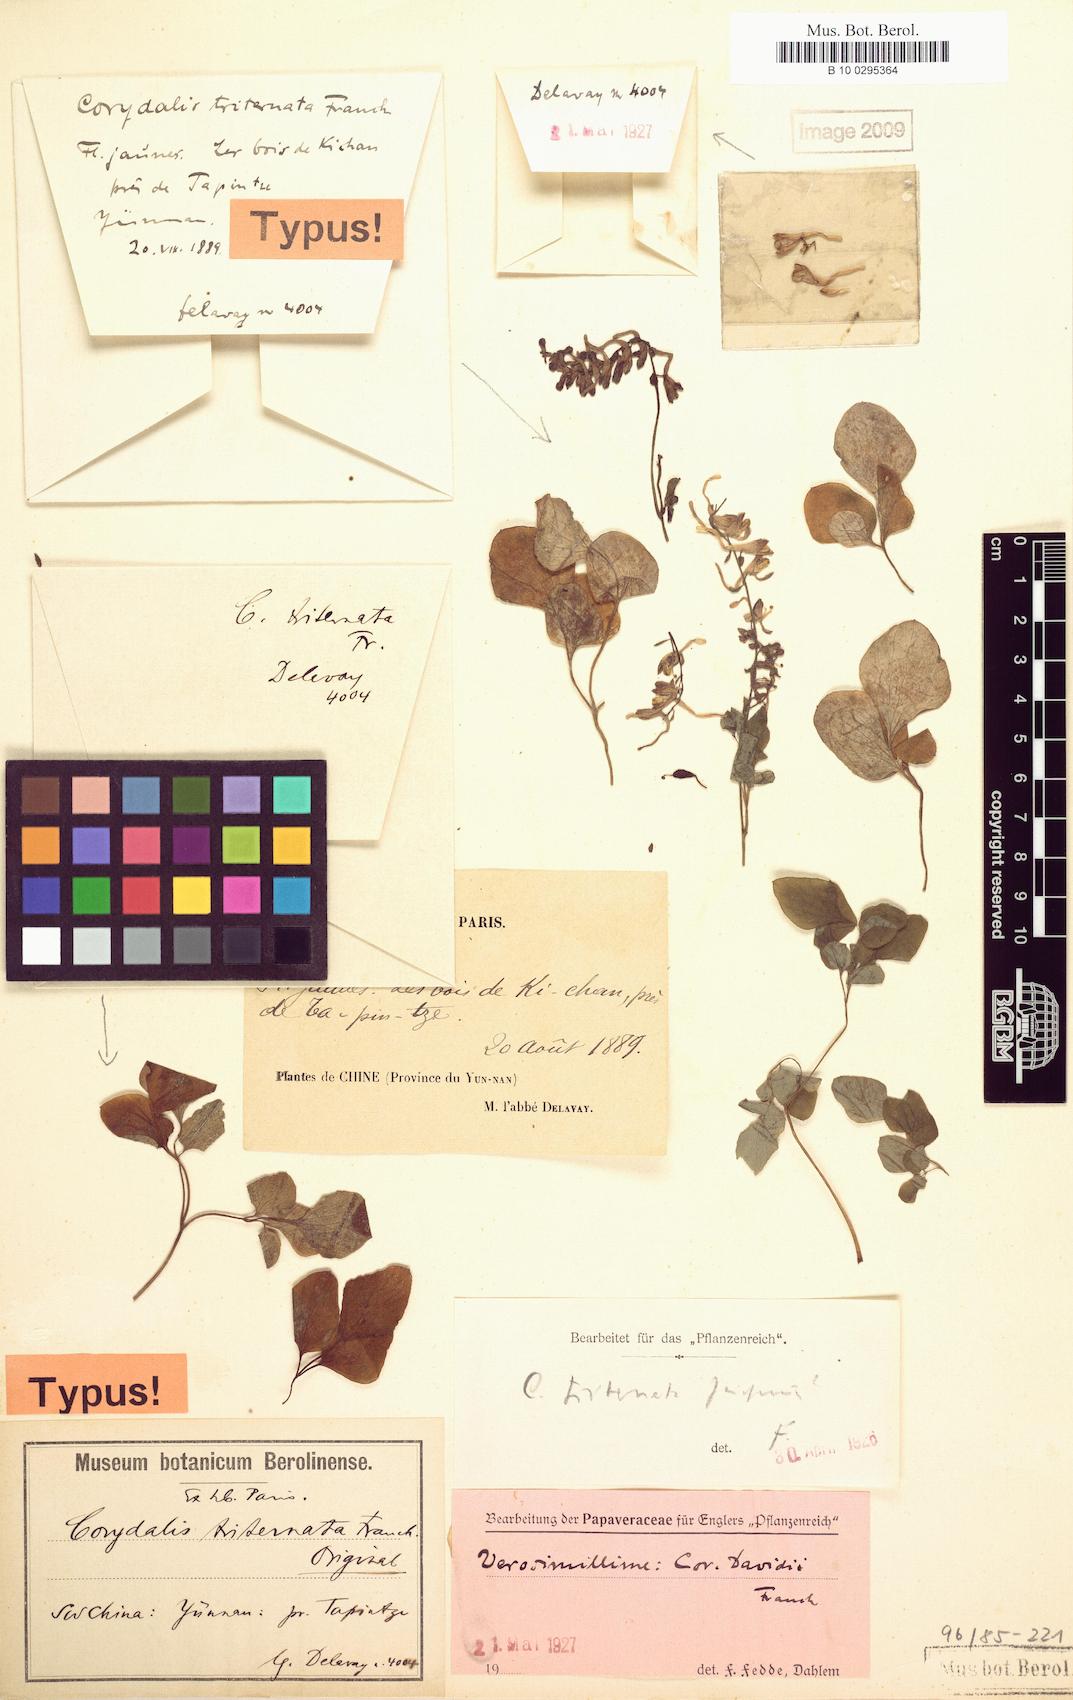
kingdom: Plantae
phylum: Tracheophyta
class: Magnoliopsida
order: Ranunculales
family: Papaveraceae
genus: Corydalis
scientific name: Corydalis triternatifolia
